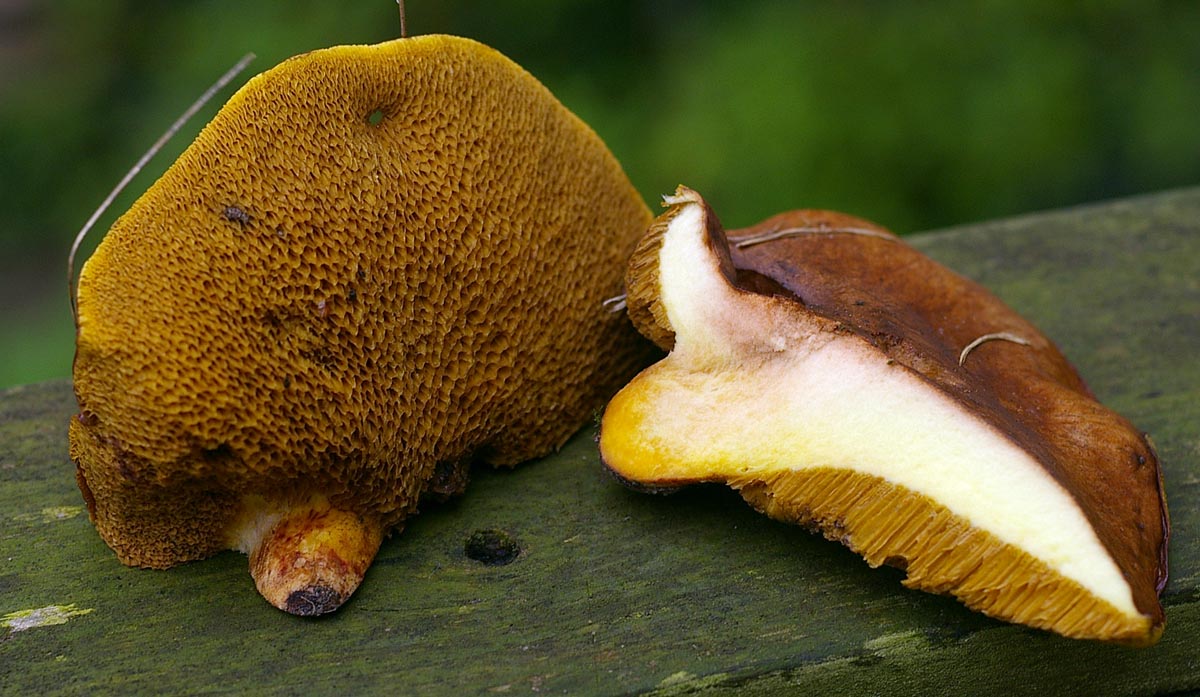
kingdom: Fungi
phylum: Basidiomycota
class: Agaricomycetes
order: Boletales
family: Suillaceae
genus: Suillus
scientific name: Suillus collinitus
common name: rosafodet slimrørhat
